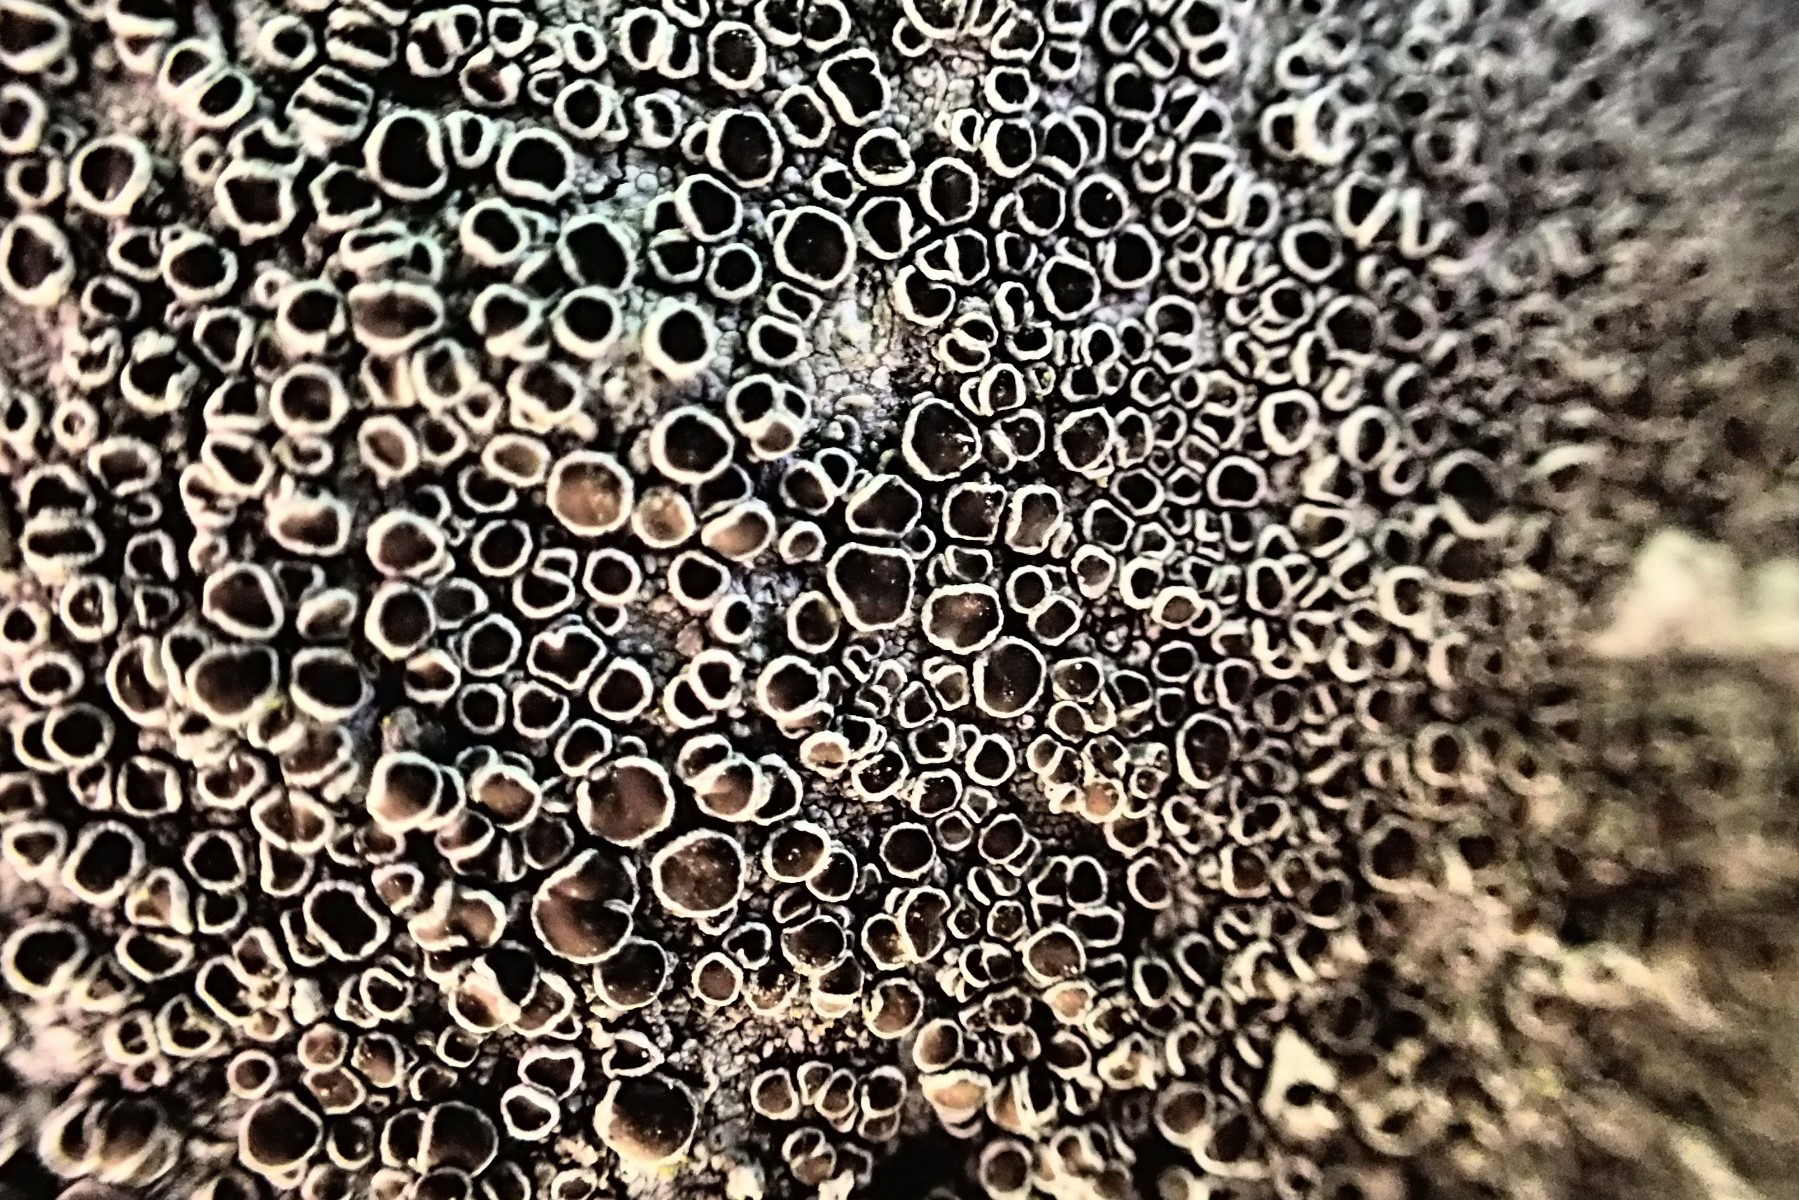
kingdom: Fungi
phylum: Ascomycota
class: Lecanoromycetes
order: Lecanorales
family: Lecanoraceae
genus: Lecanora
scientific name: Lecanora
